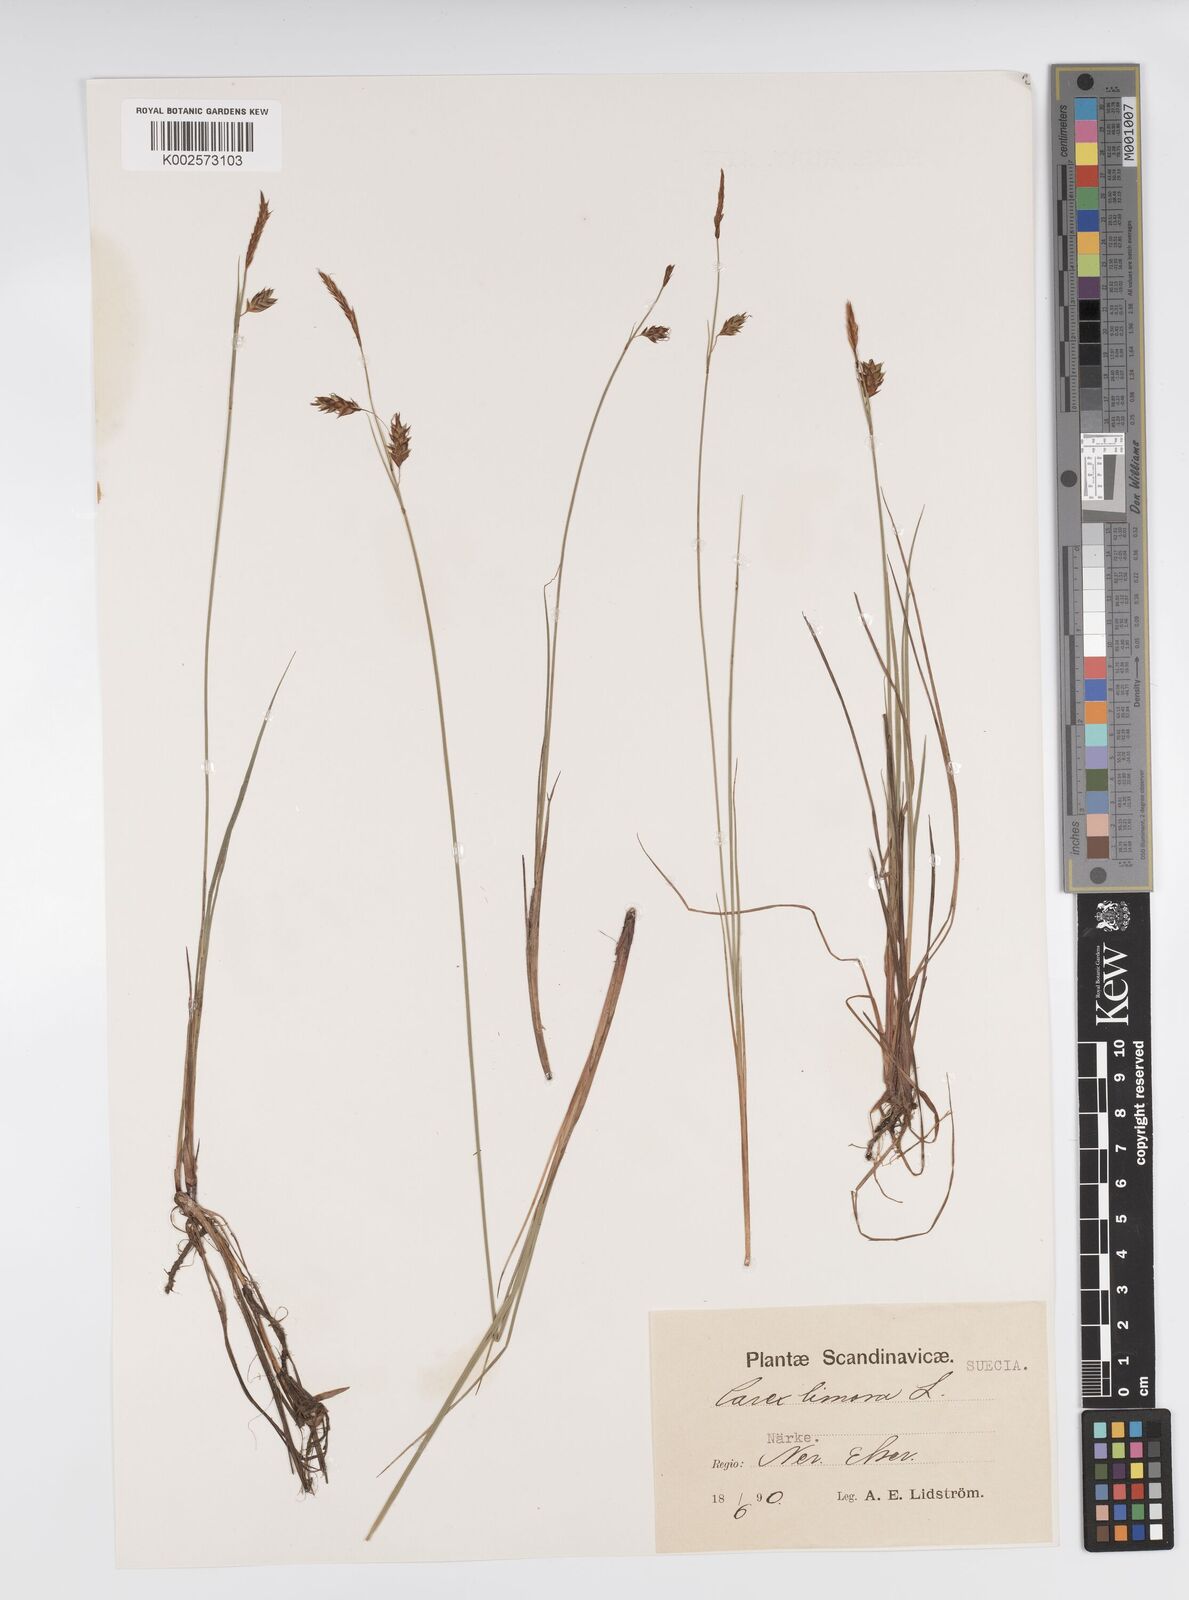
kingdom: Plantae
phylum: Tracheophyta
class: Liliopsida
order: Poales
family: Cyperaceae
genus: Carex
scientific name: Carex limosa
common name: Bog sedge
